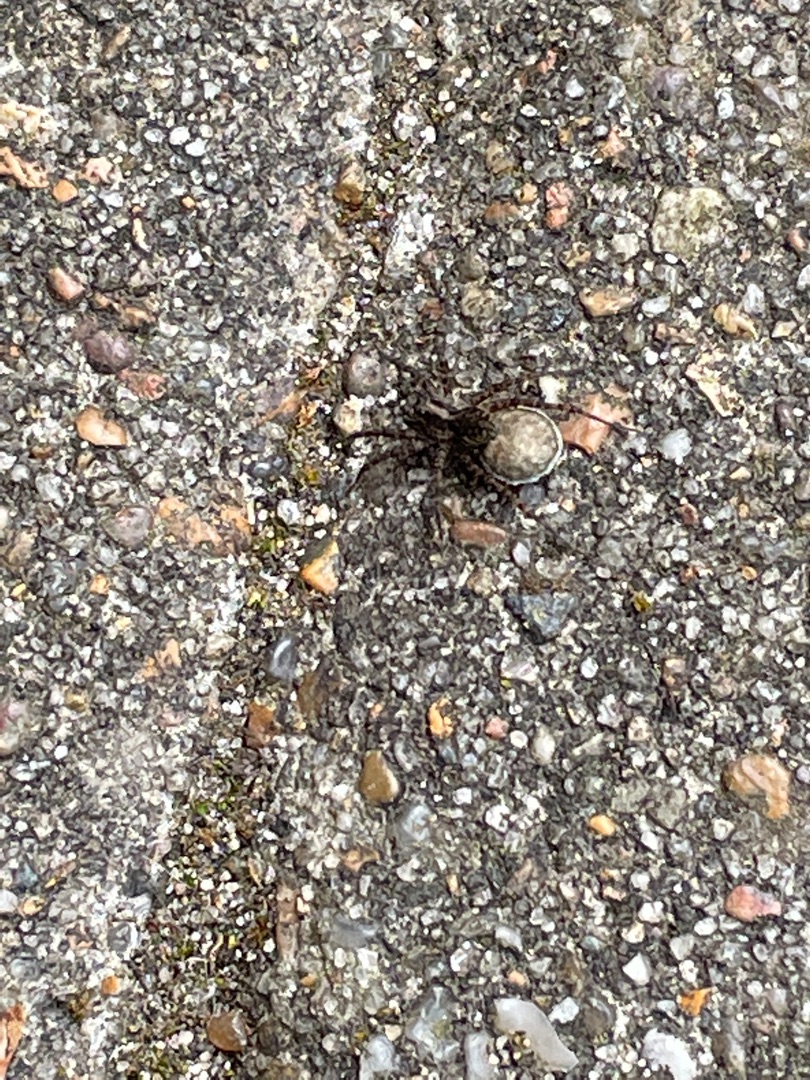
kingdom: Animalia
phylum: Arthropoda
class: Arachnida
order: Araneae
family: Lycosidae
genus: Pardosa
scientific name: Pardosa
